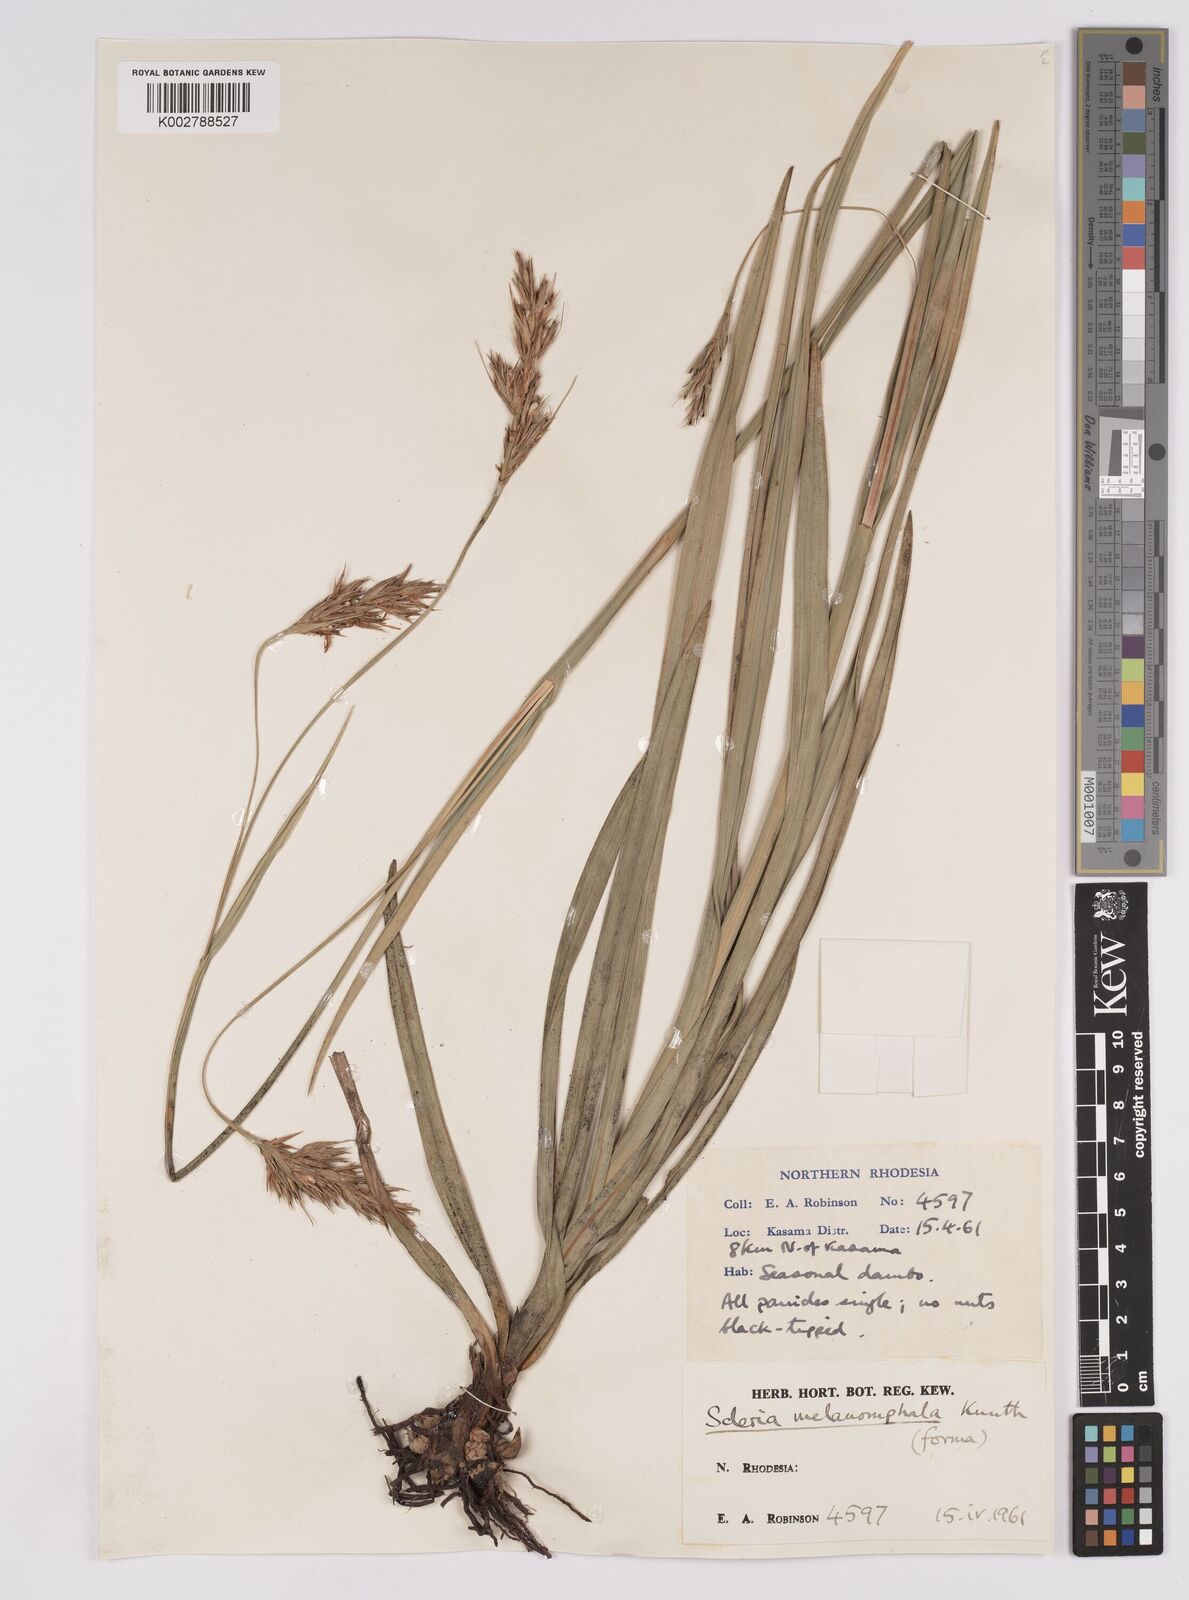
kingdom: Plantae
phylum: Tracheophyta
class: Liliopsida
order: Poales
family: Cyperaceae
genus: Scleria
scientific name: Scleria melanomphala
